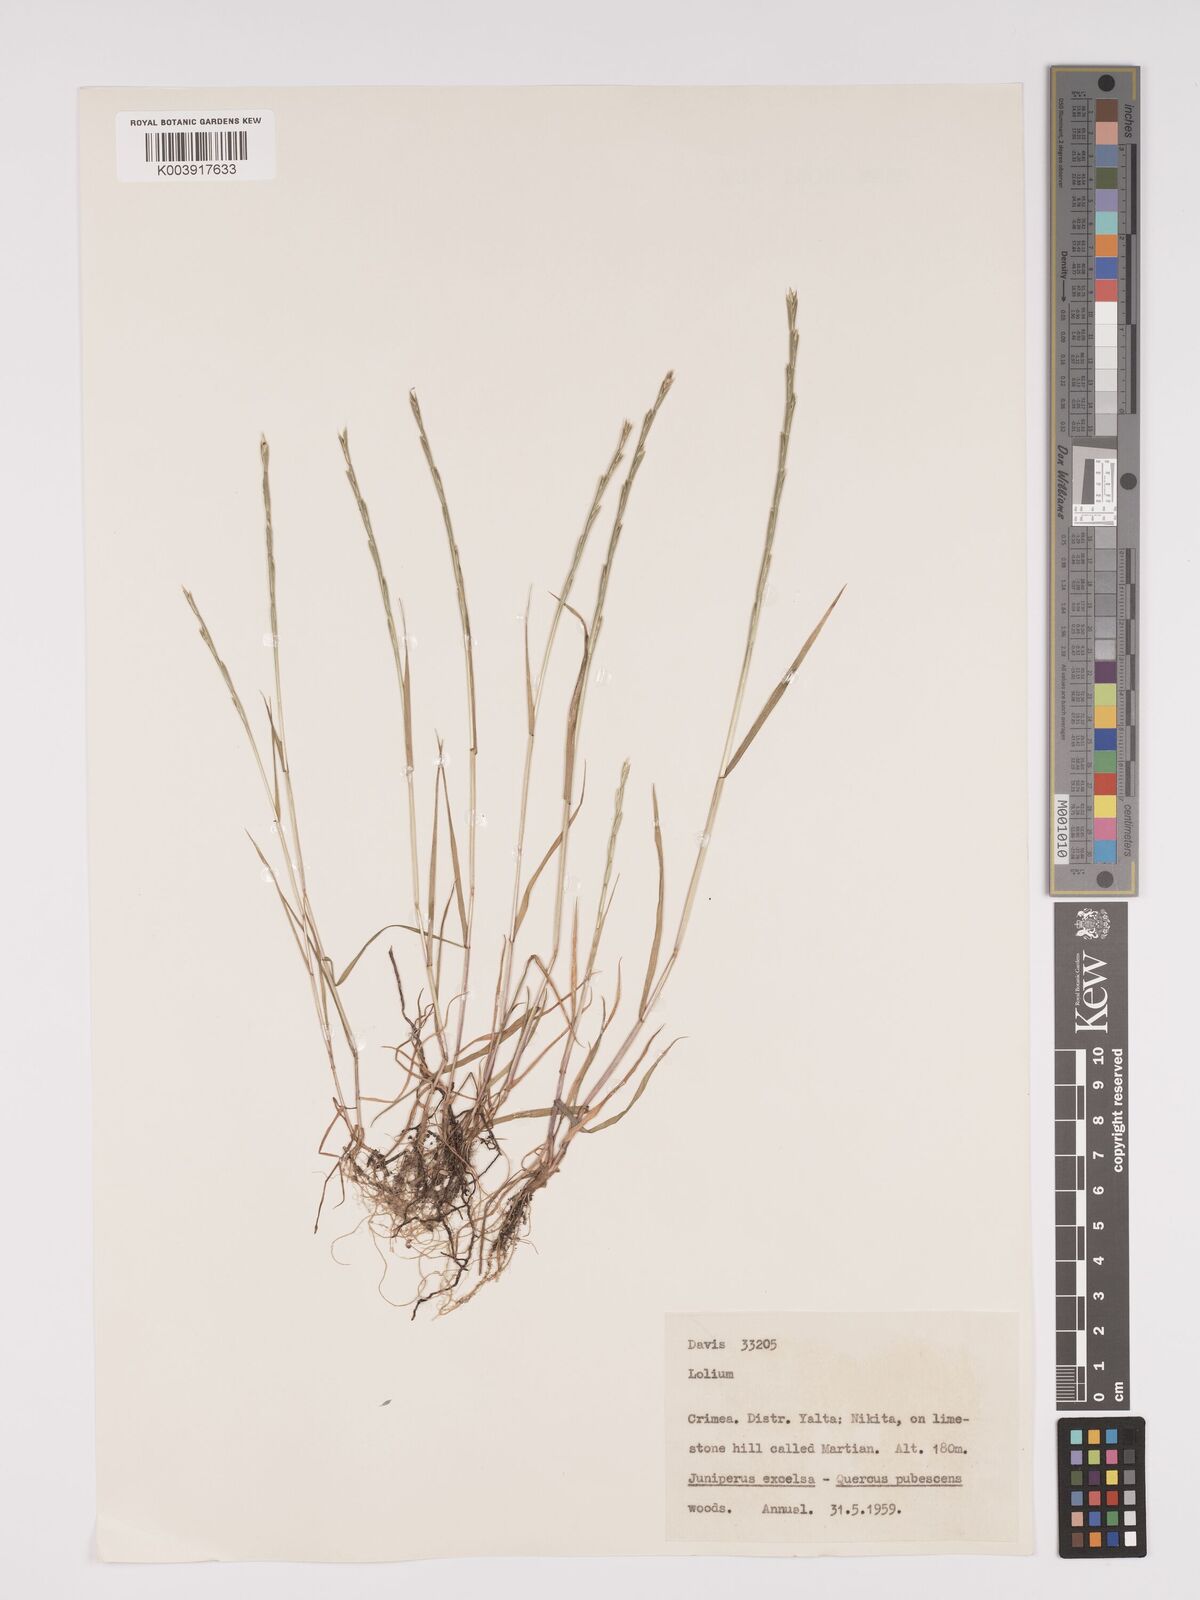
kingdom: Plantae
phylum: Tracheophyta
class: Liliopsida
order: Poales
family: Poaceae
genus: Lolium
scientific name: Lolium
